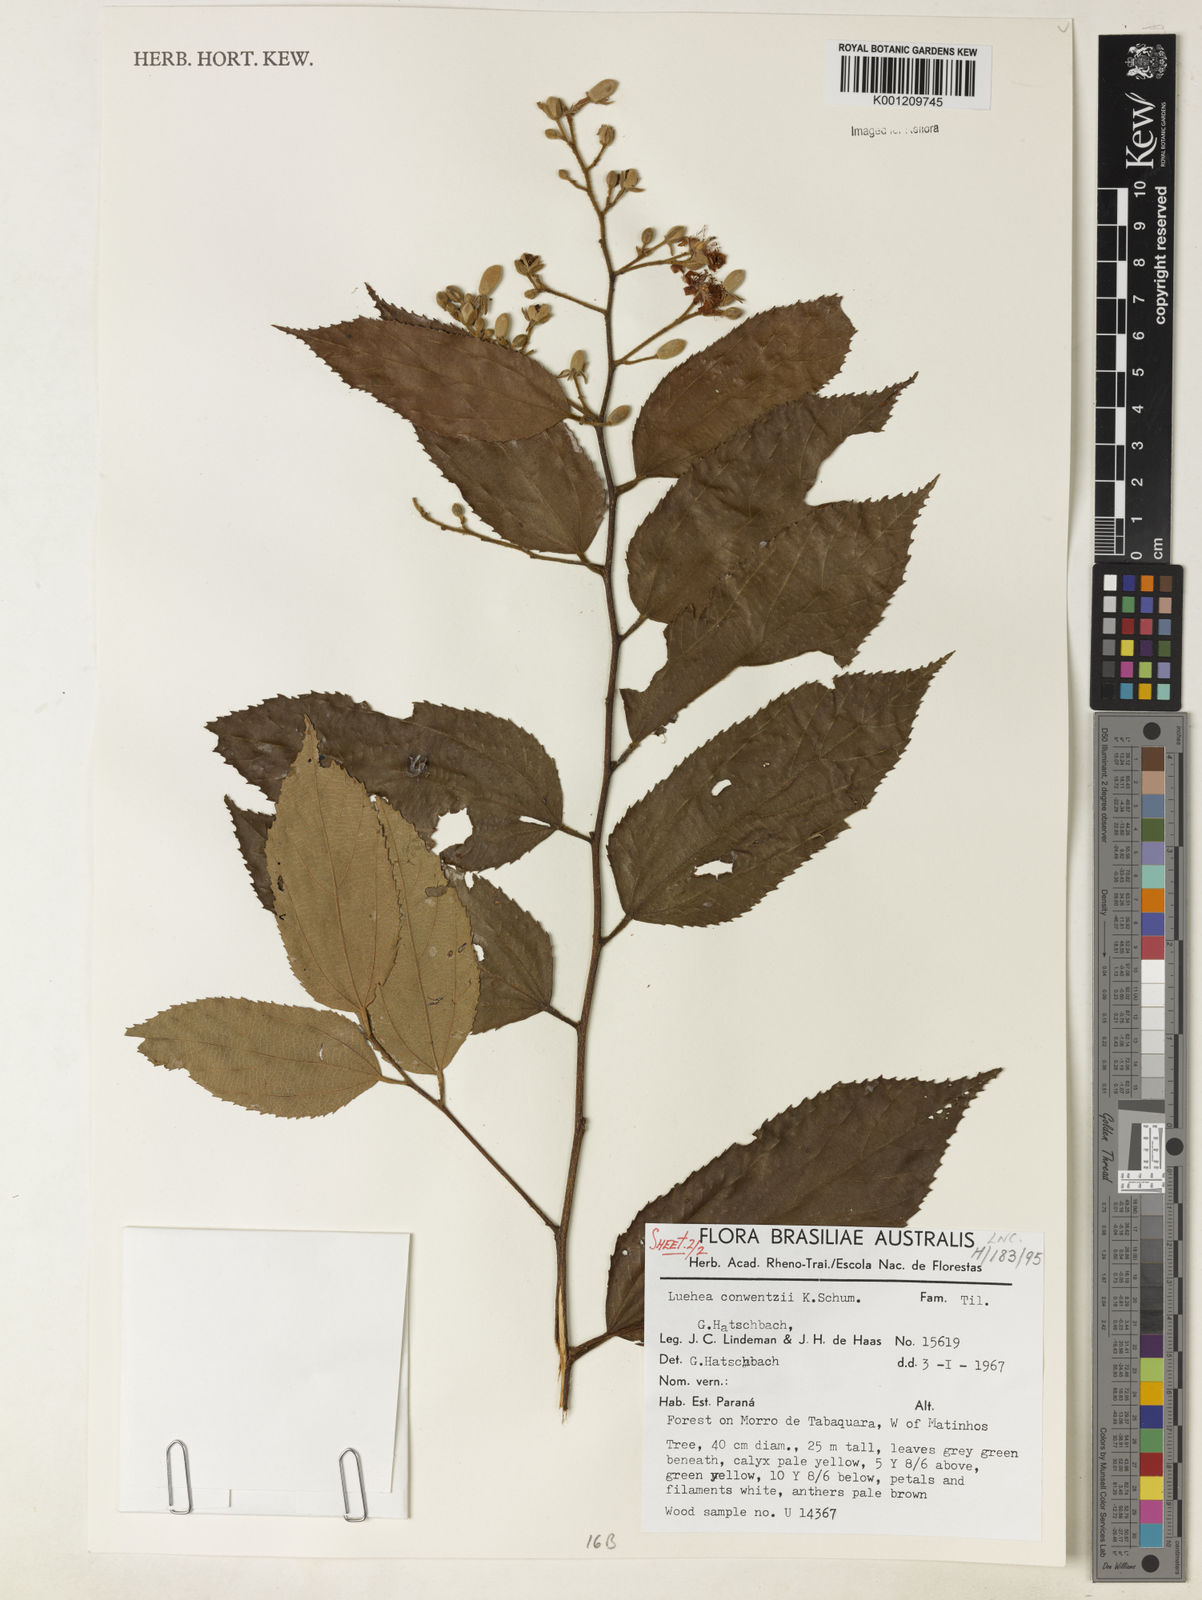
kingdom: Plantae
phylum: Tracheophyta
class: Magnoliopsida
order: Malvales
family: Malvaceae
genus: Luehea
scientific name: Luehea
